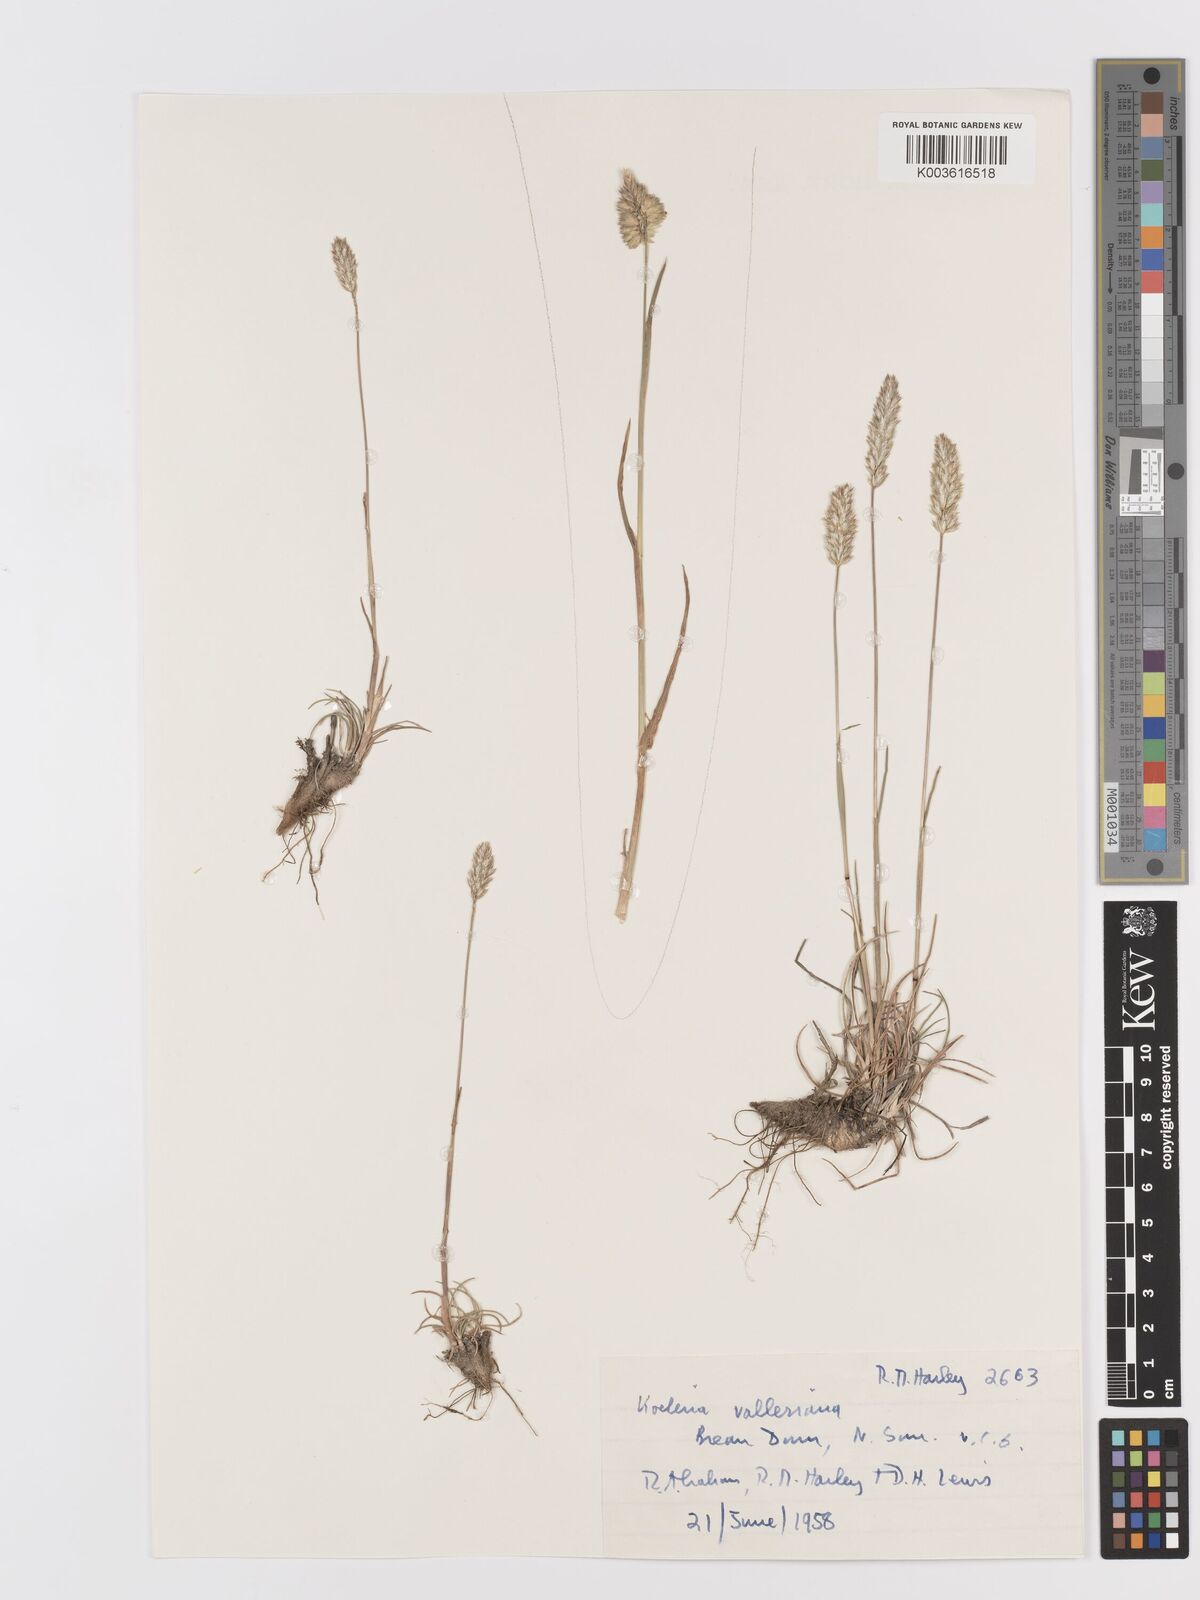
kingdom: Plantae
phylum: Tracheophyta
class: Liliopsida
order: Poales
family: Poaceae
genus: Koeleria
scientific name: Koeleria vallesiana
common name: Somerset hair-grass
